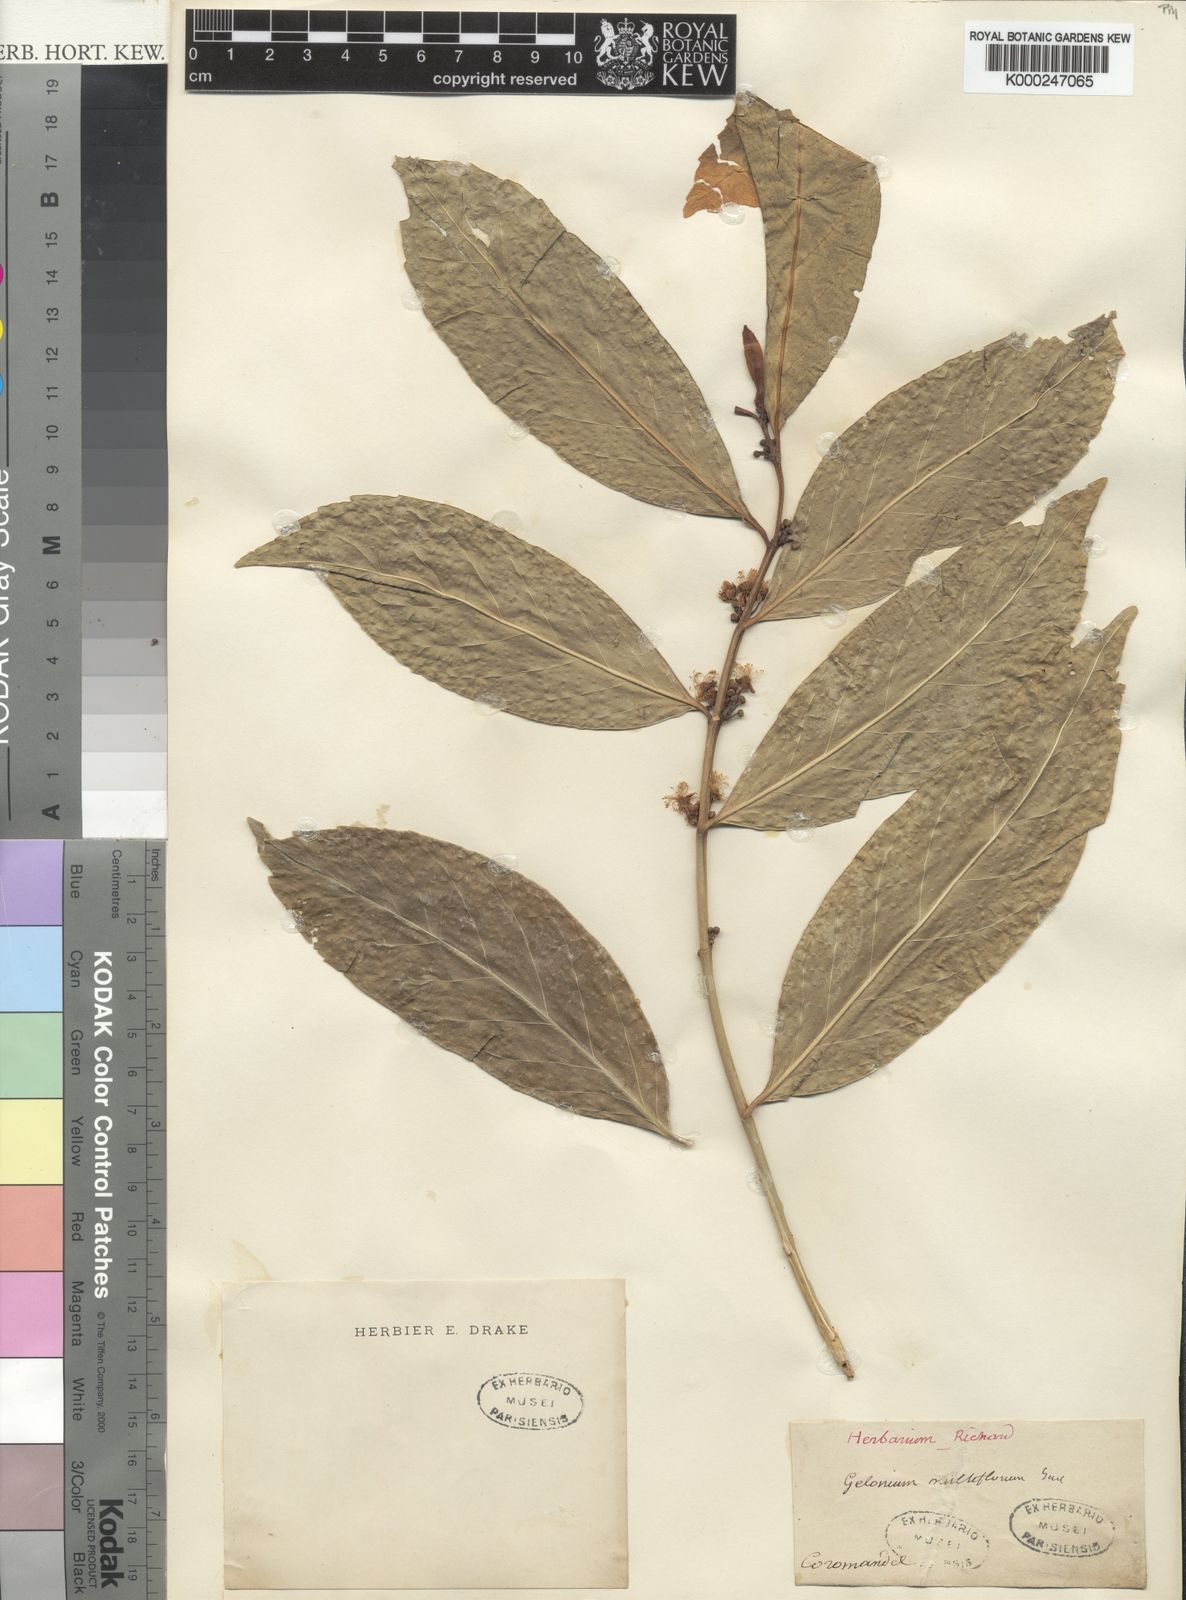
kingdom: Plantae
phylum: Tracheophyta
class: Magnoliopsida
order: Malpighiales
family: Euphorbiaceae
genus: Suregada
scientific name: Suregada multiflora
